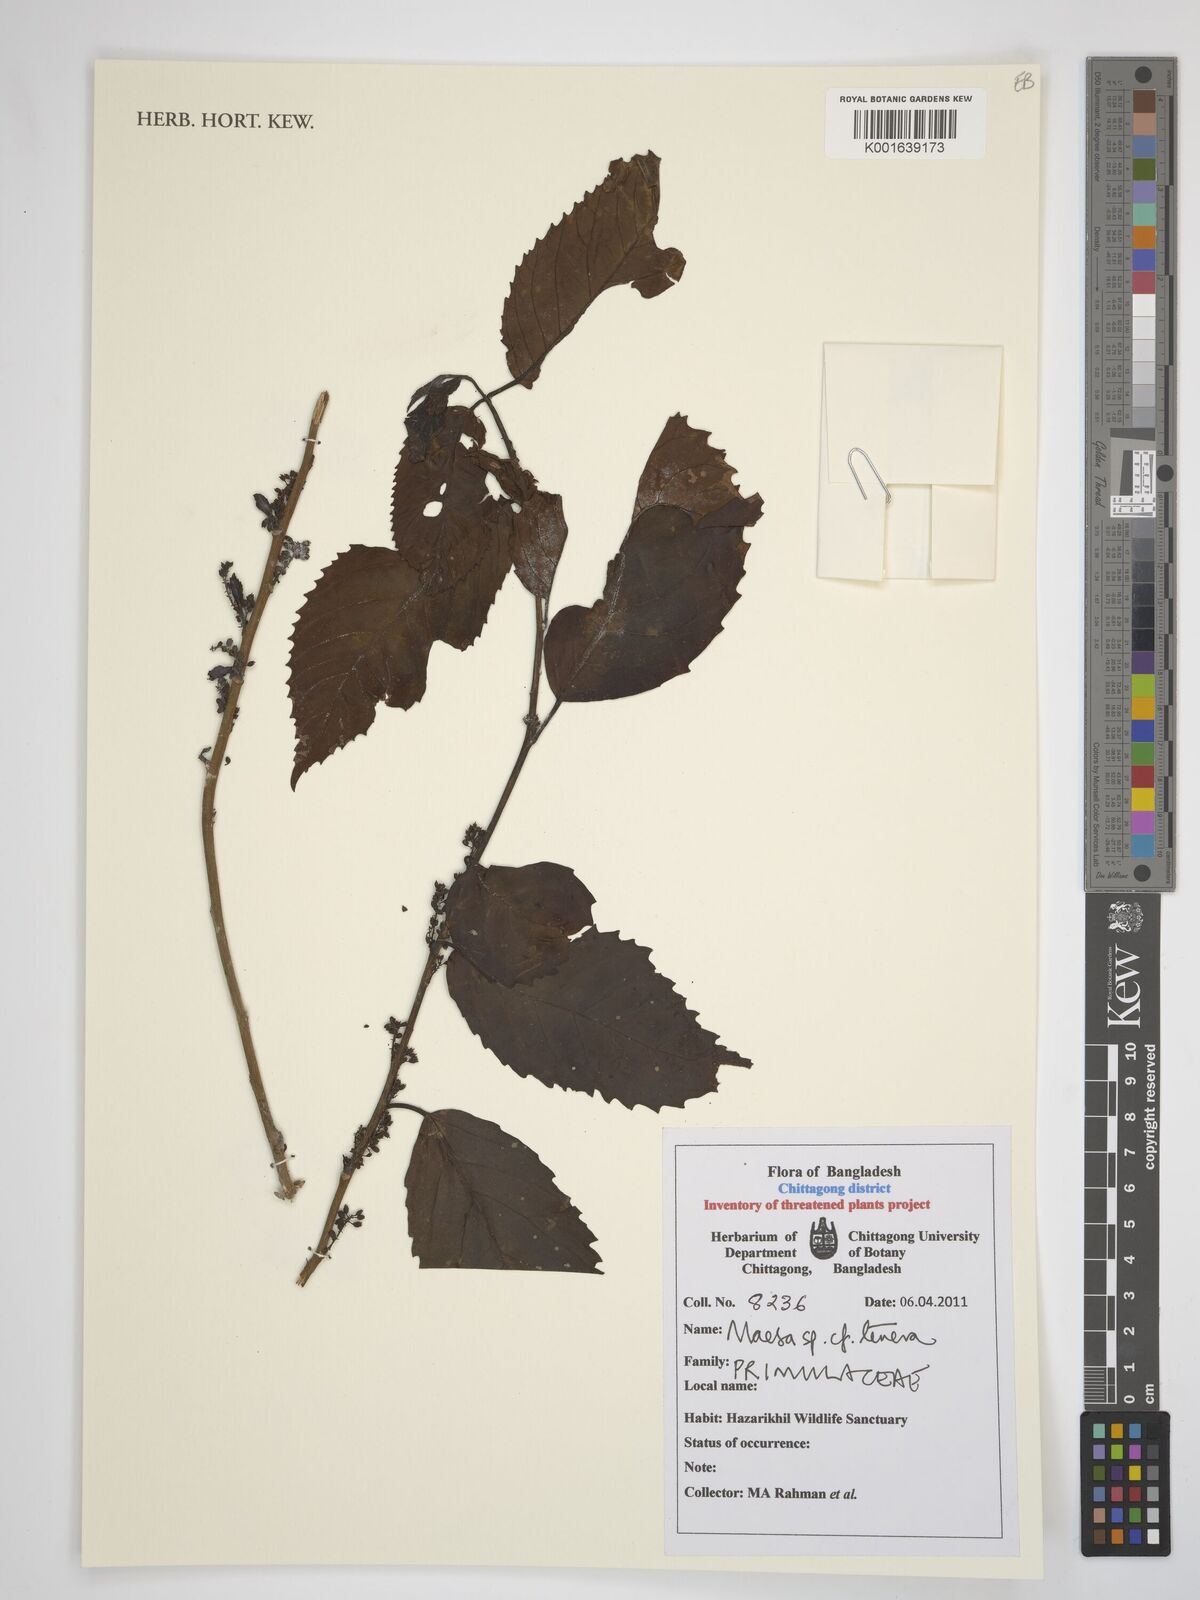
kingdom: Plantae
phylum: Tracheophyta
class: Magnoliopsida
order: Ericales
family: Primulaceae
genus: Maesa
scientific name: Maesa perlaria
